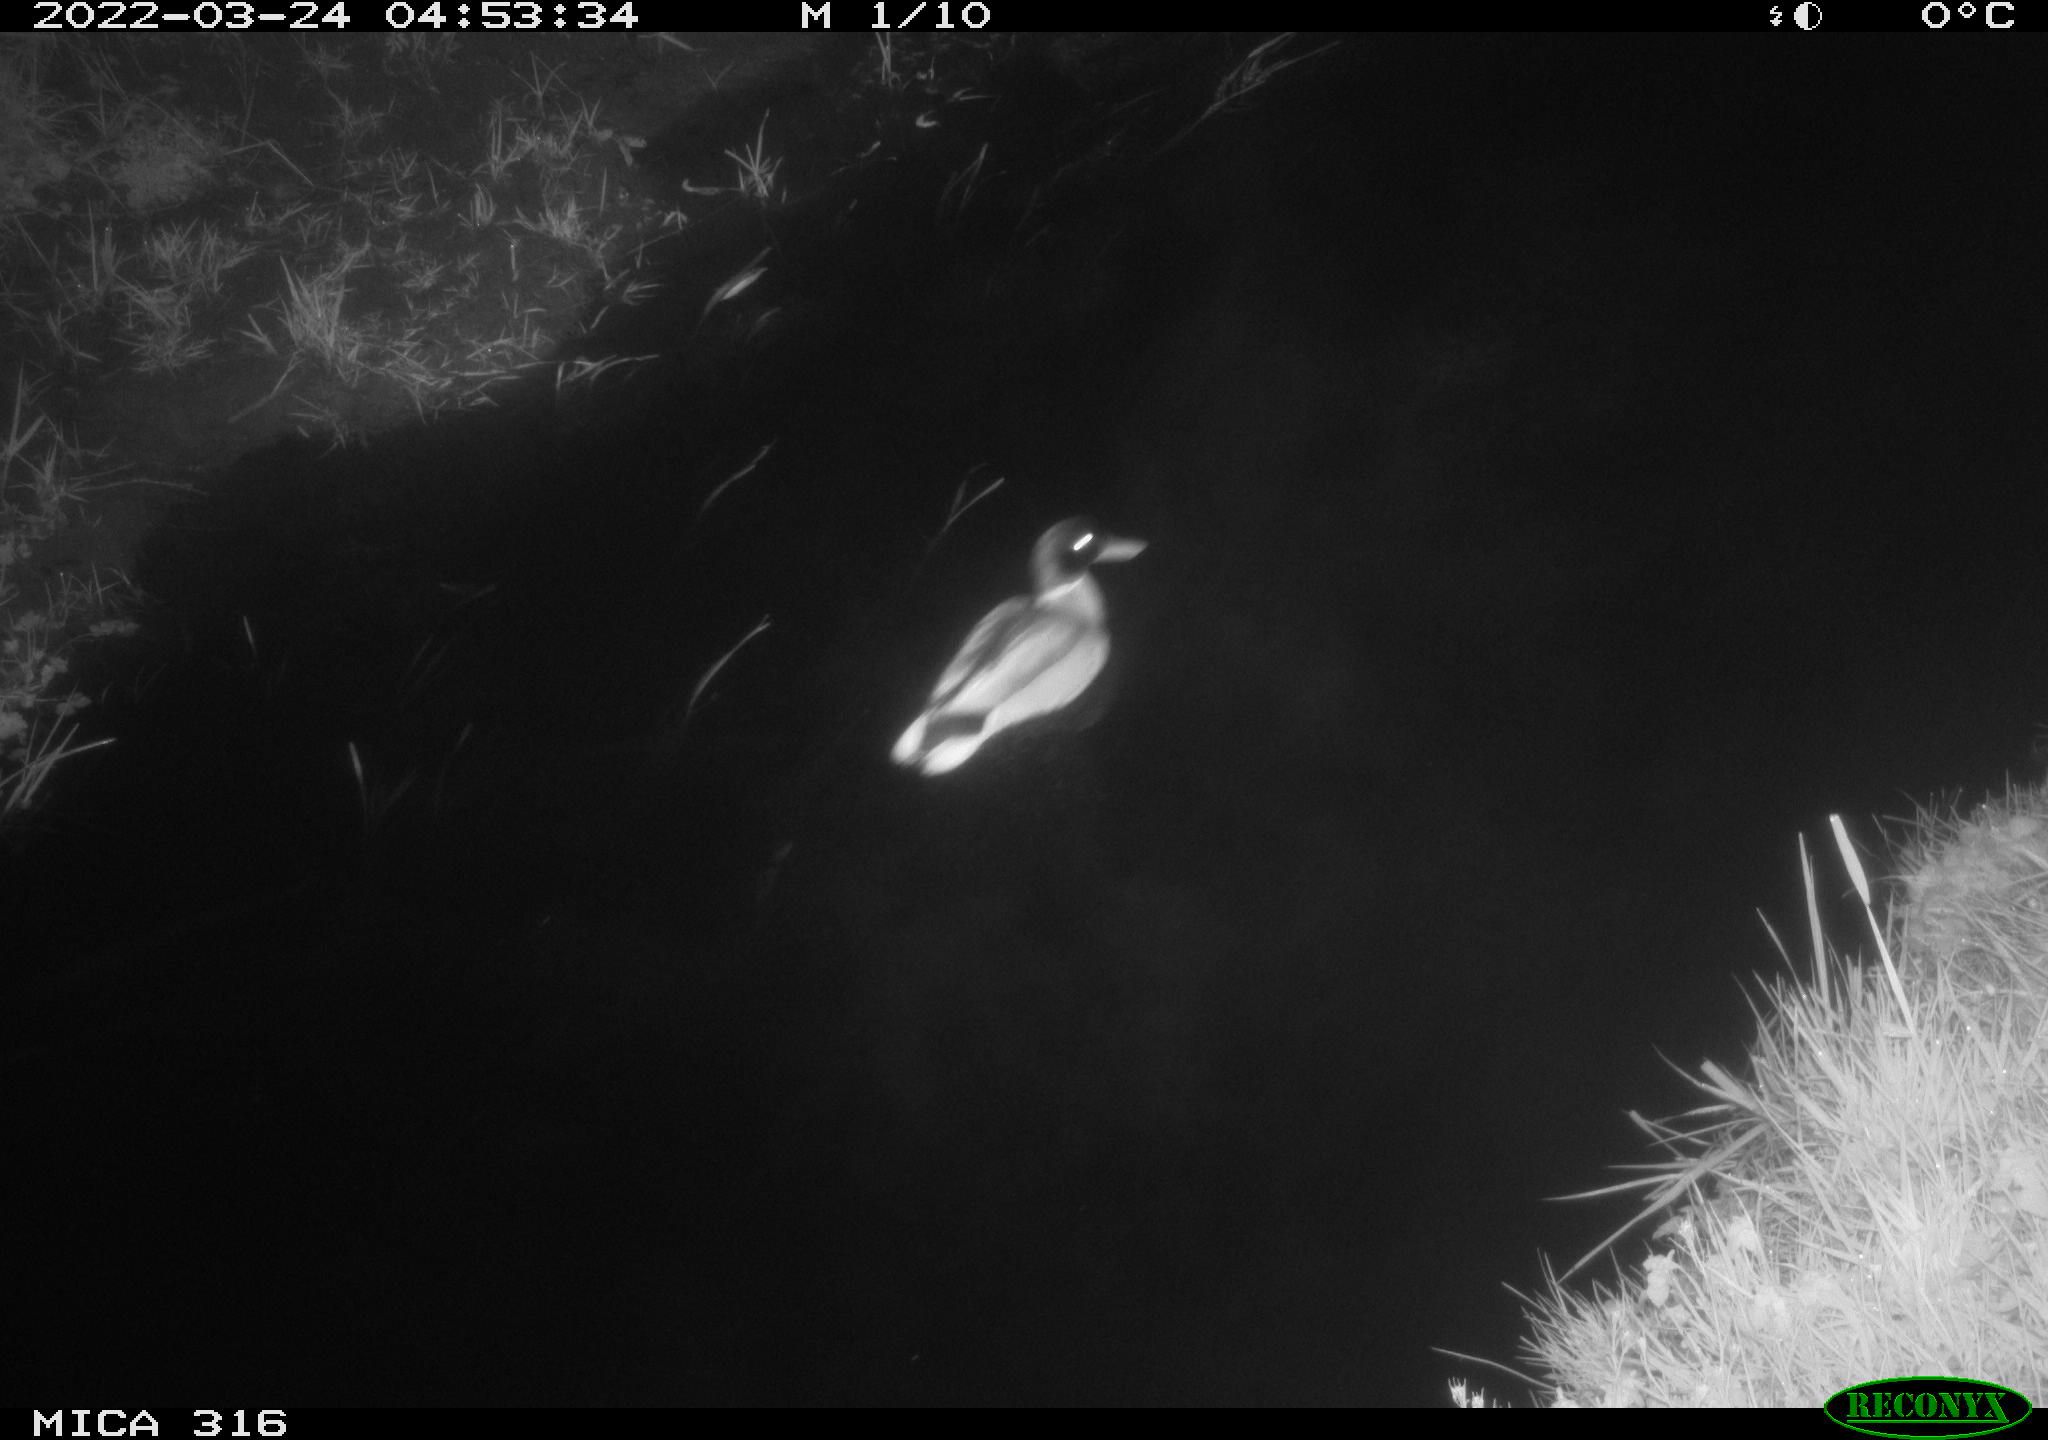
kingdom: Animalia
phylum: Chordata
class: Aves
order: Anseriformes
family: Anatidae
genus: Anas
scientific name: Anas platyrhynchos
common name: Mallard
